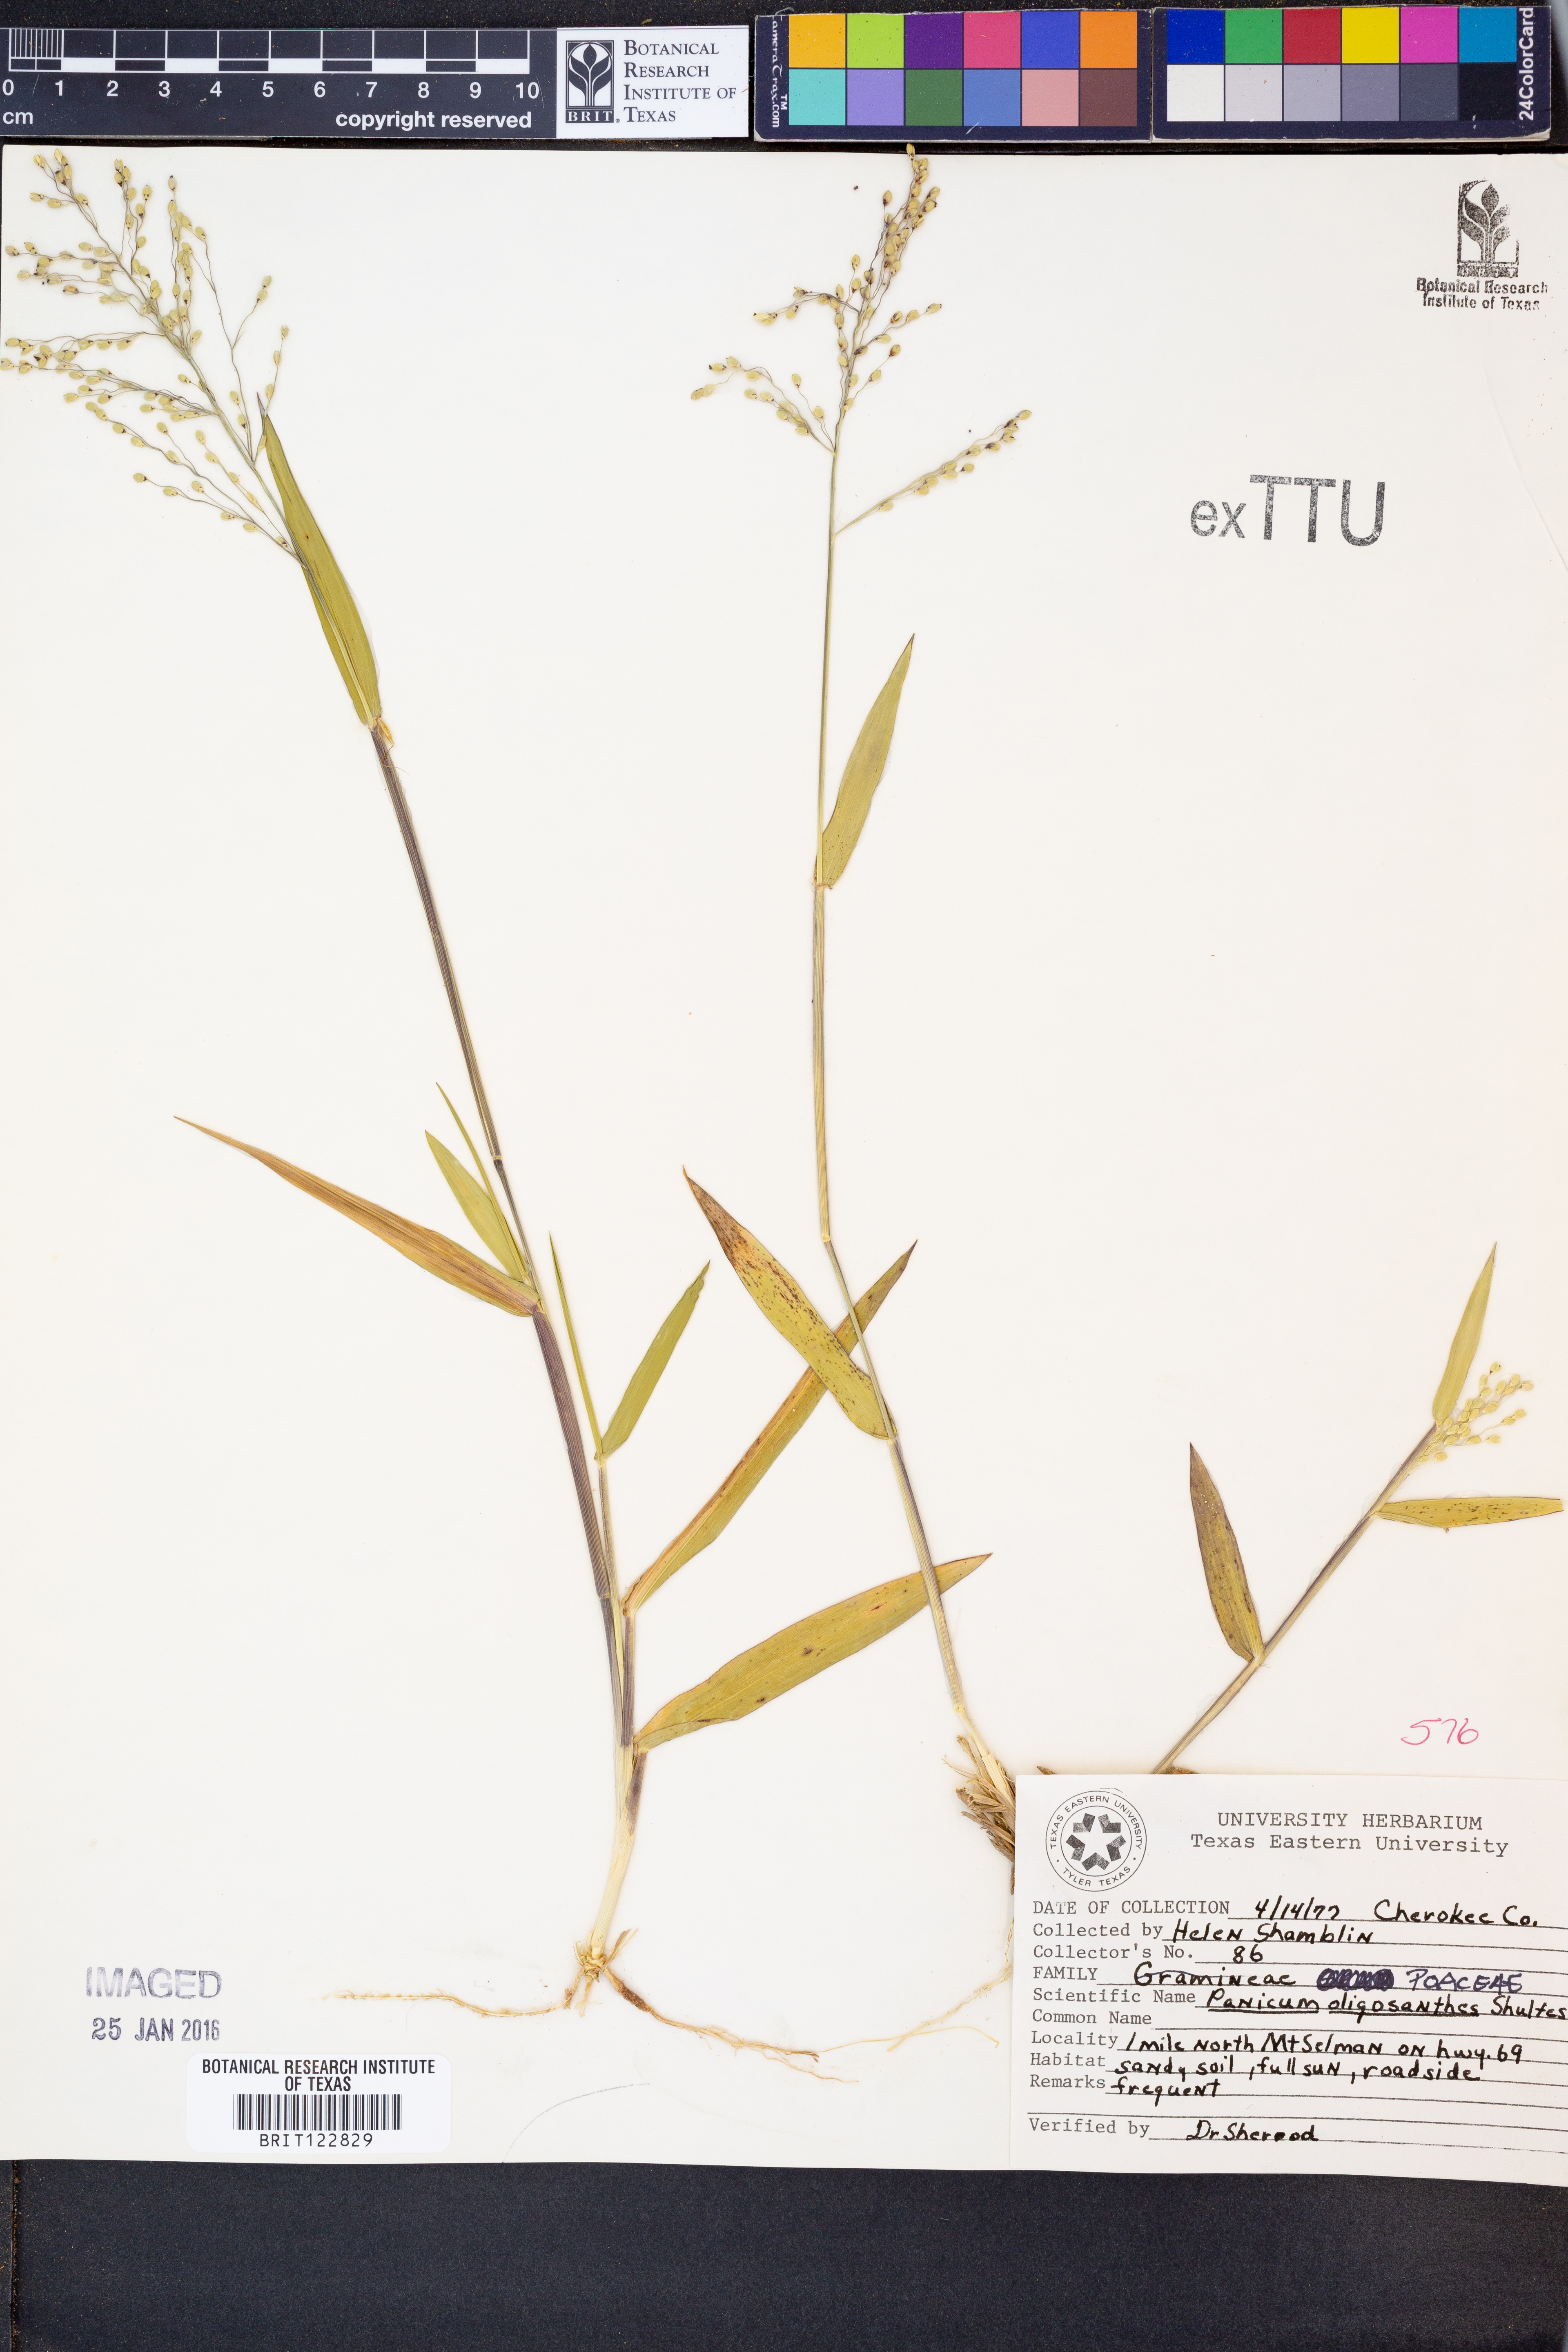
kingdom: Plantae
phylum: Tracheophyta
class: Liliopsida
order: Poales
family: Poaceae
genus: Dichanthelium
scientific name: Dichanthelium oligosanthes
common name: Few-anther obscuregrass
